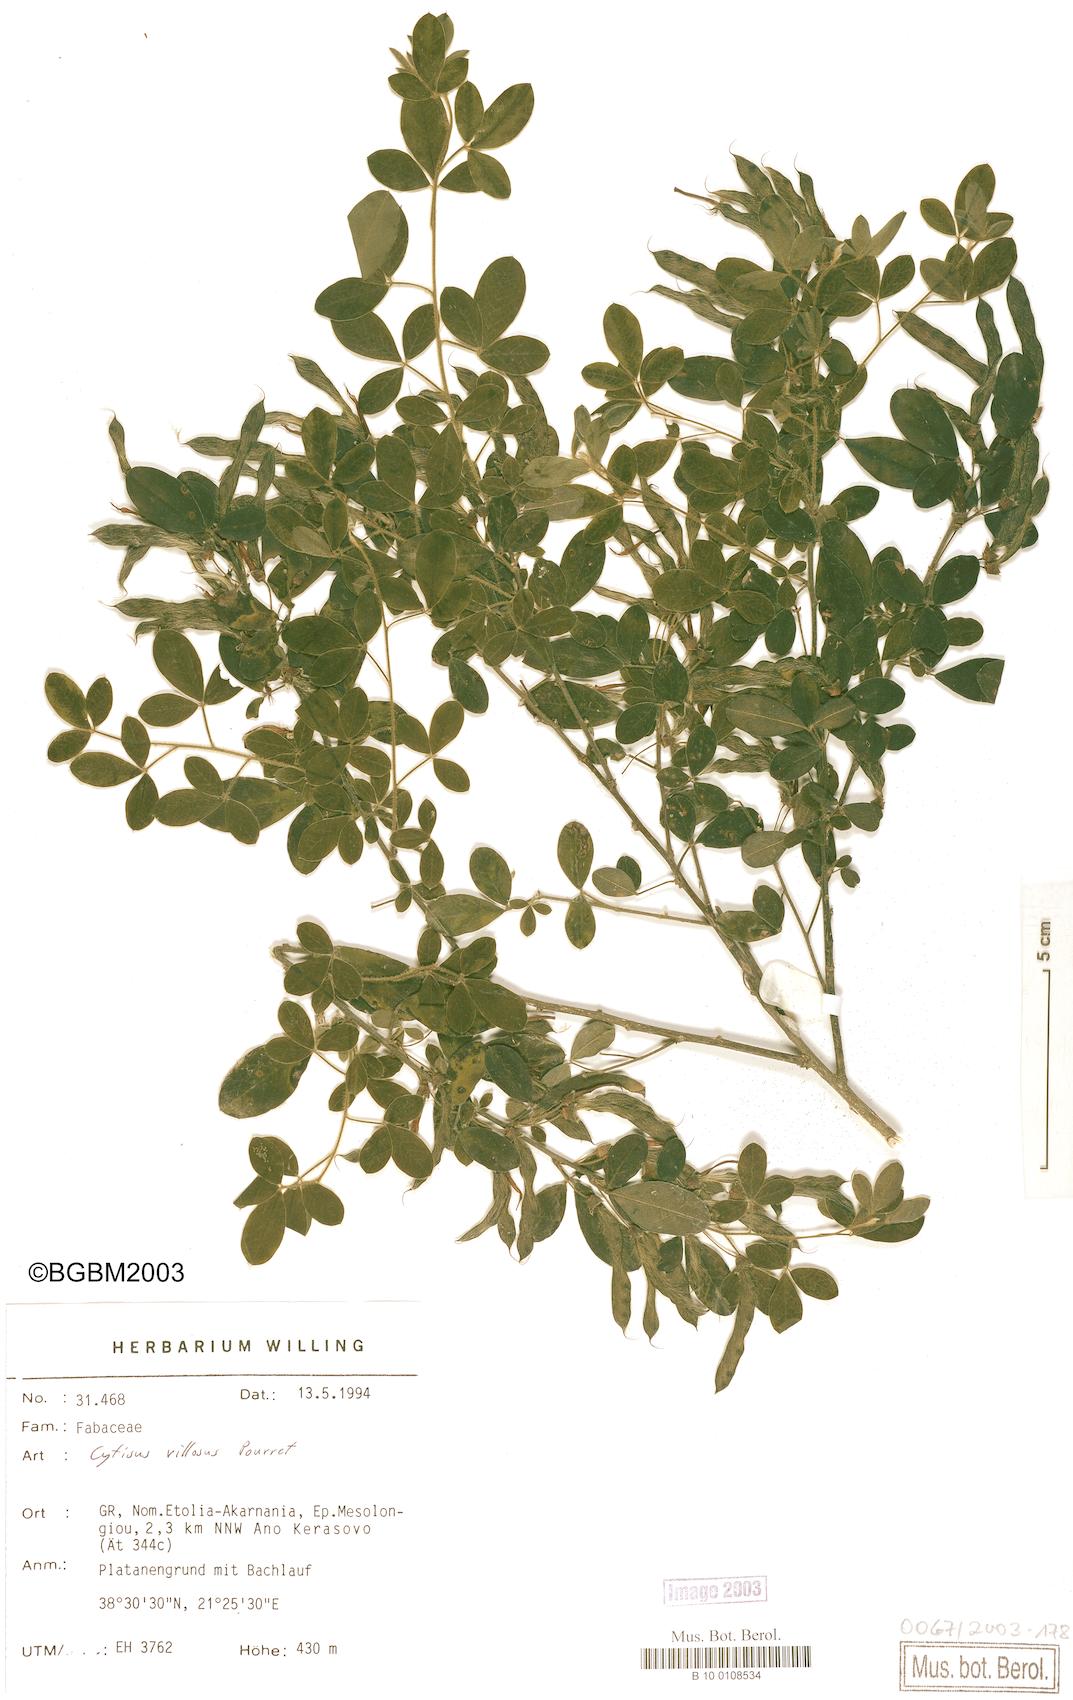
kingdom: Plantae
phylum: Tracheophyta
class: Magnoliopsida
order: Fabales
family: Fabaceae
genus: Cytisus
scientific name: Cytisus villosus
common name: Hairybroom
